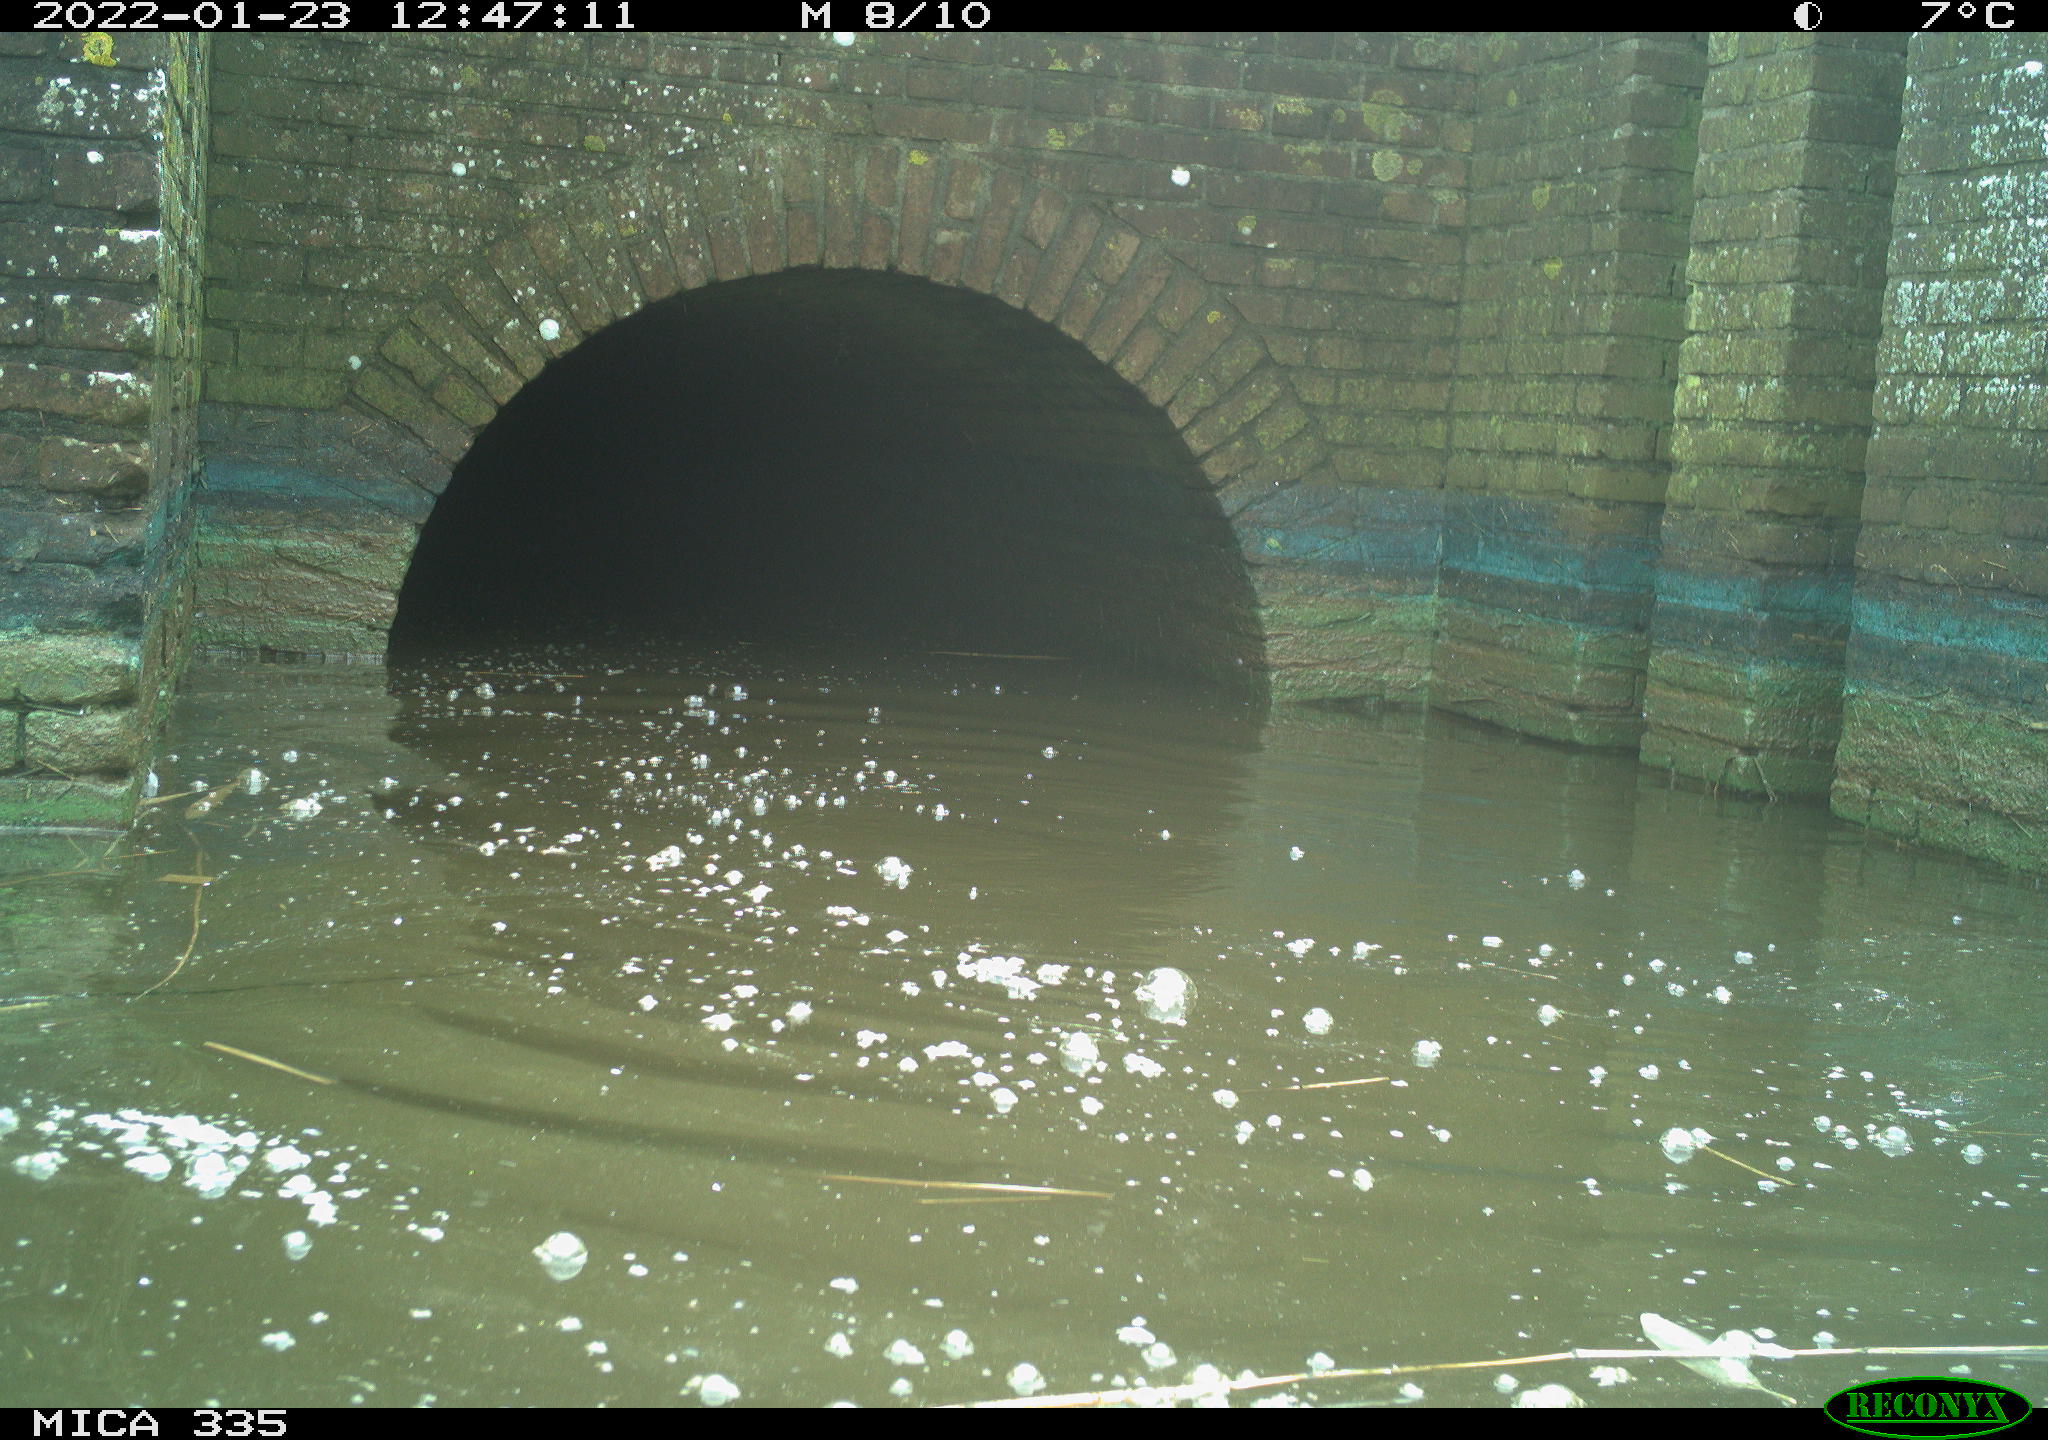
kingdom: Animalia
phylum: Chordata
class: Aves
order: Suliformes
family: Phalacrocoracidae
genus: Phalacrocorax
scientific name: Phalacrocorax carbo
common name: Great cormorant
